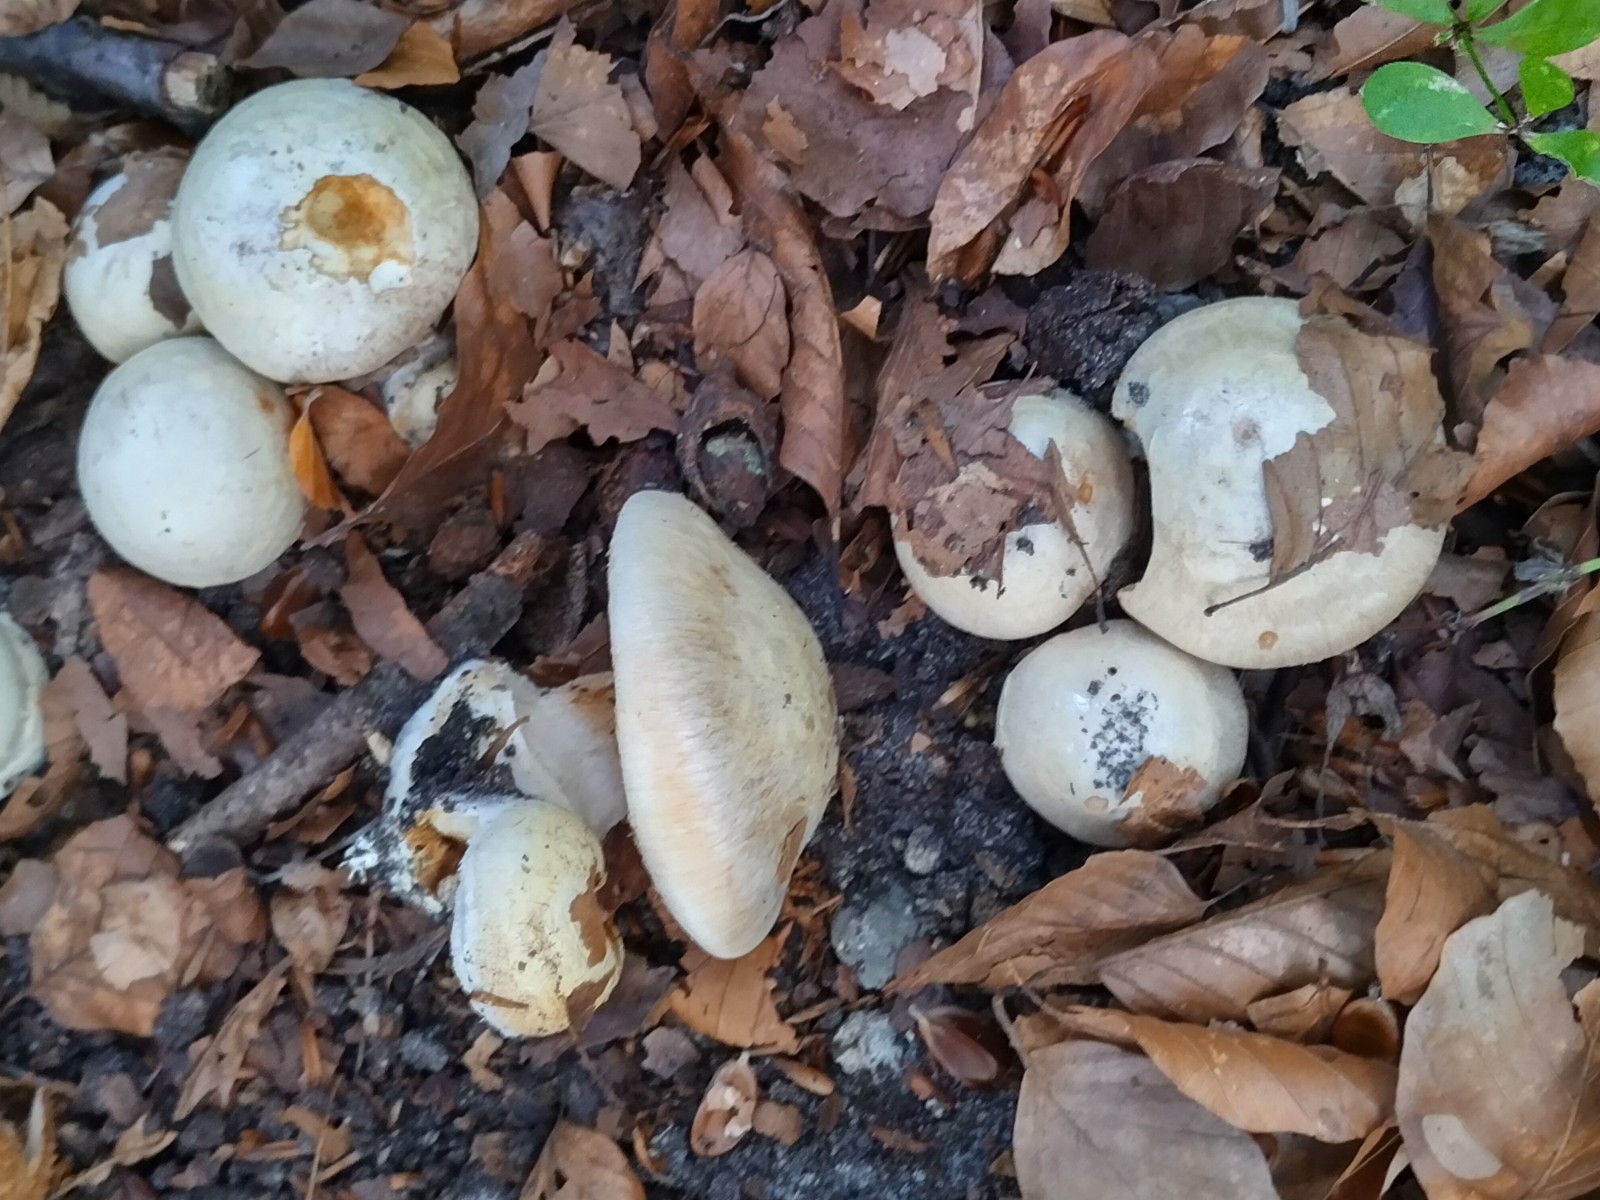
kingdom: Fungi
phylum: Basidiomycota
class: Agaricomycetes
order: Agaricales
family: Cortinariaceae
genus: Cortinarius
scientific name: Cortinarius foetens
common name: stribet slørhat
